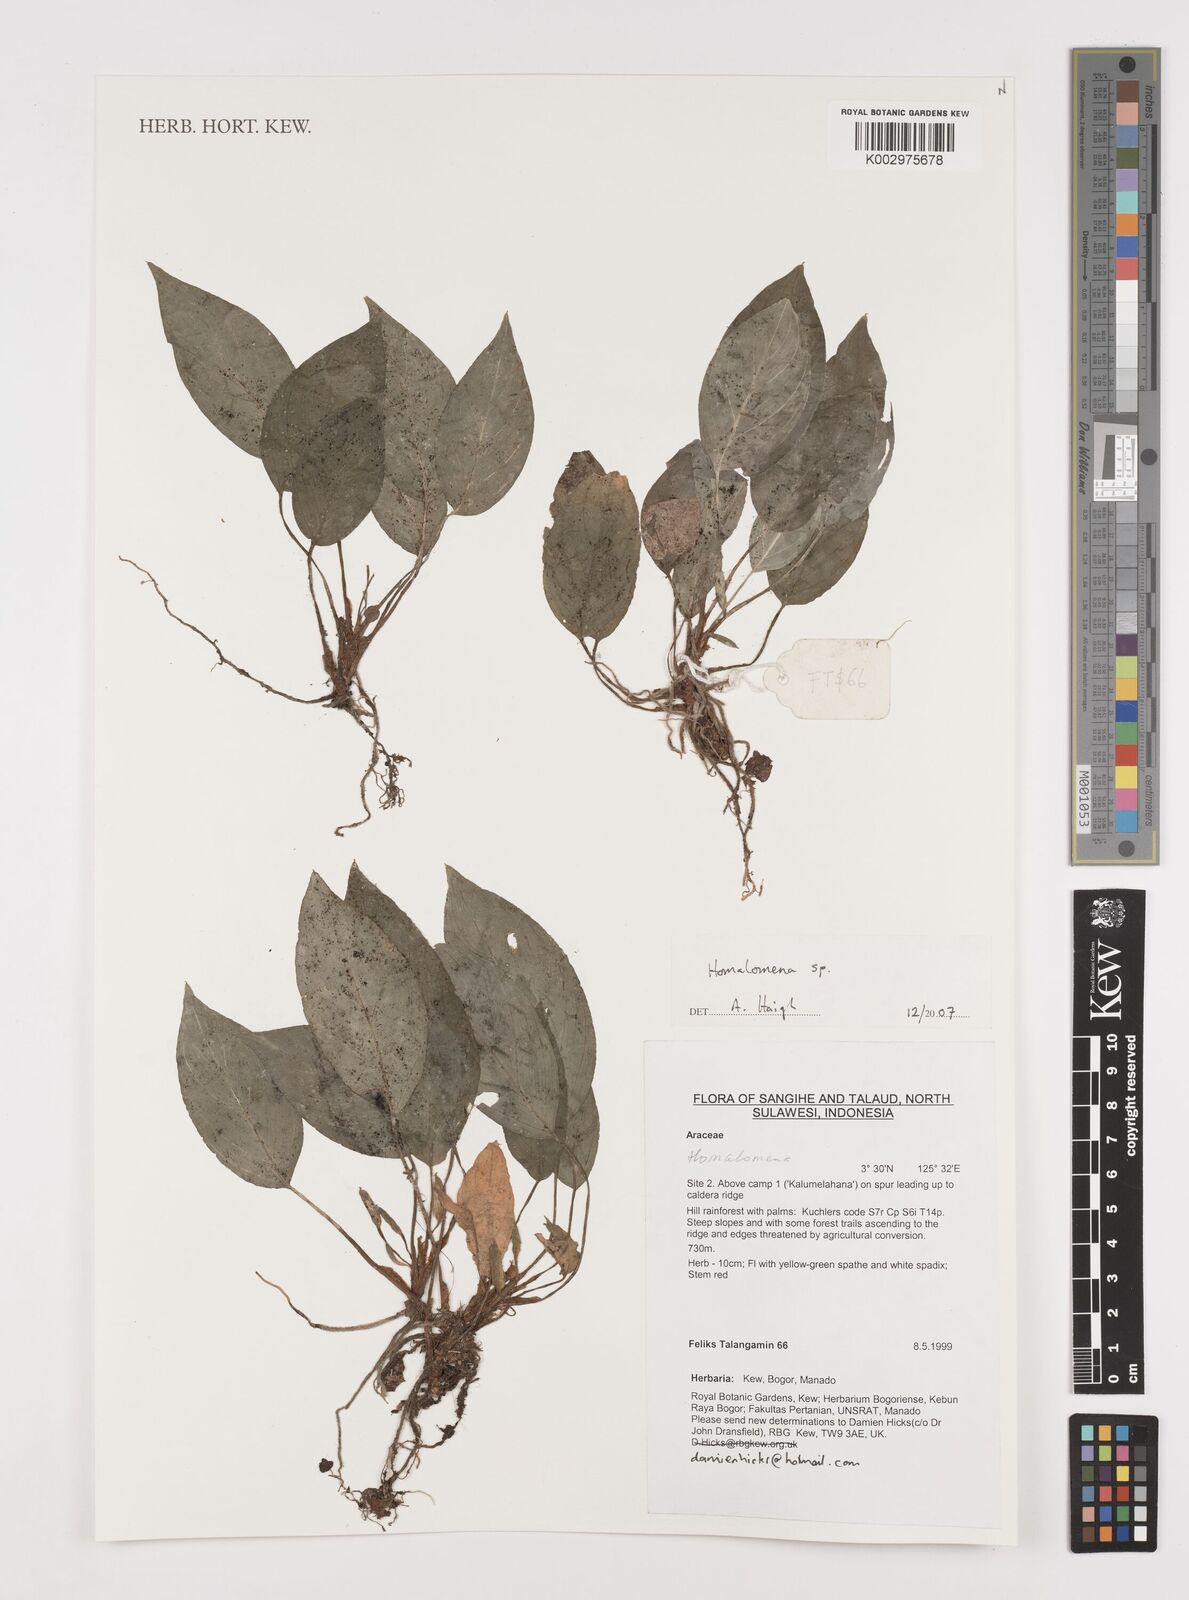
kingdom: Plantae
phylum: Tracheophyta
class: Liliopsida
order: Alismatales
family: Araceae
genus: Homalomena
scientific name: Homalomena
